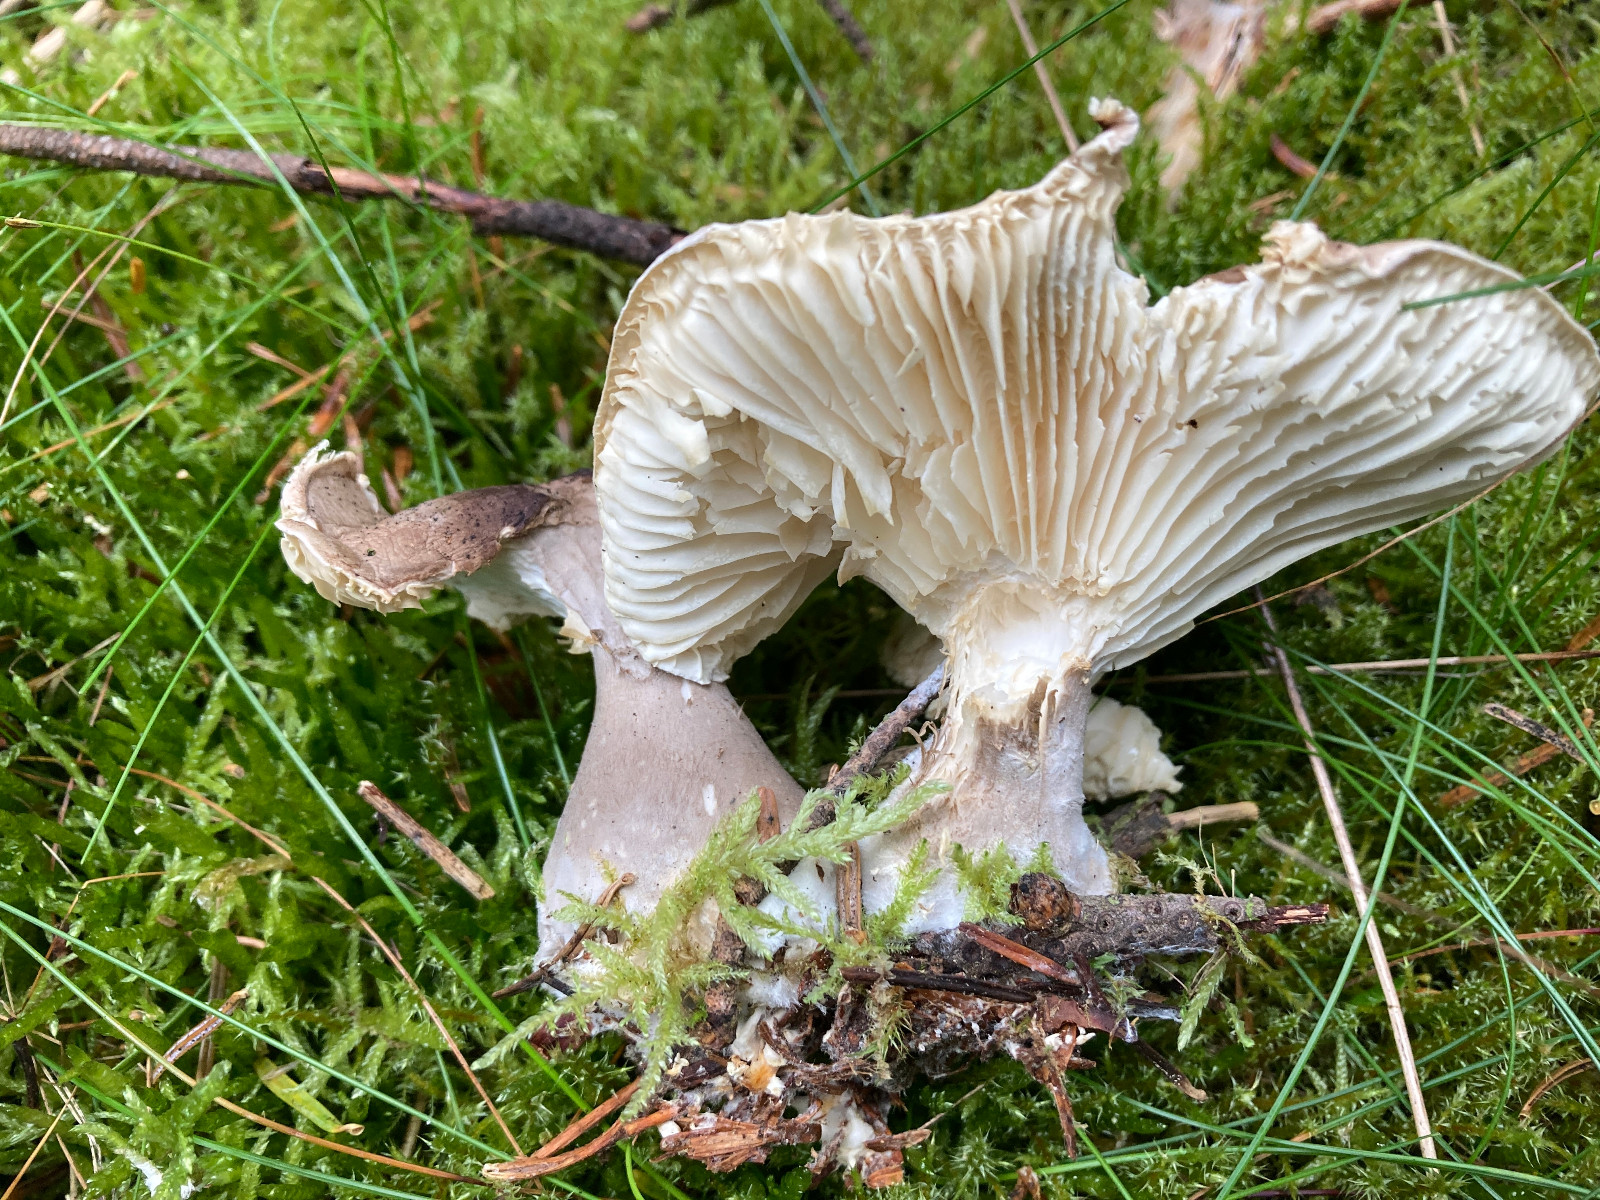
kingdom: Fungi
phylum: Basidiomycota
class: Agaricomycetes
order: Agaricales
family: Hygrophoraceae
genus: Ampulloclitocybe
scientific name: Ampulloclitocybe clavipes
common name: køllefod
